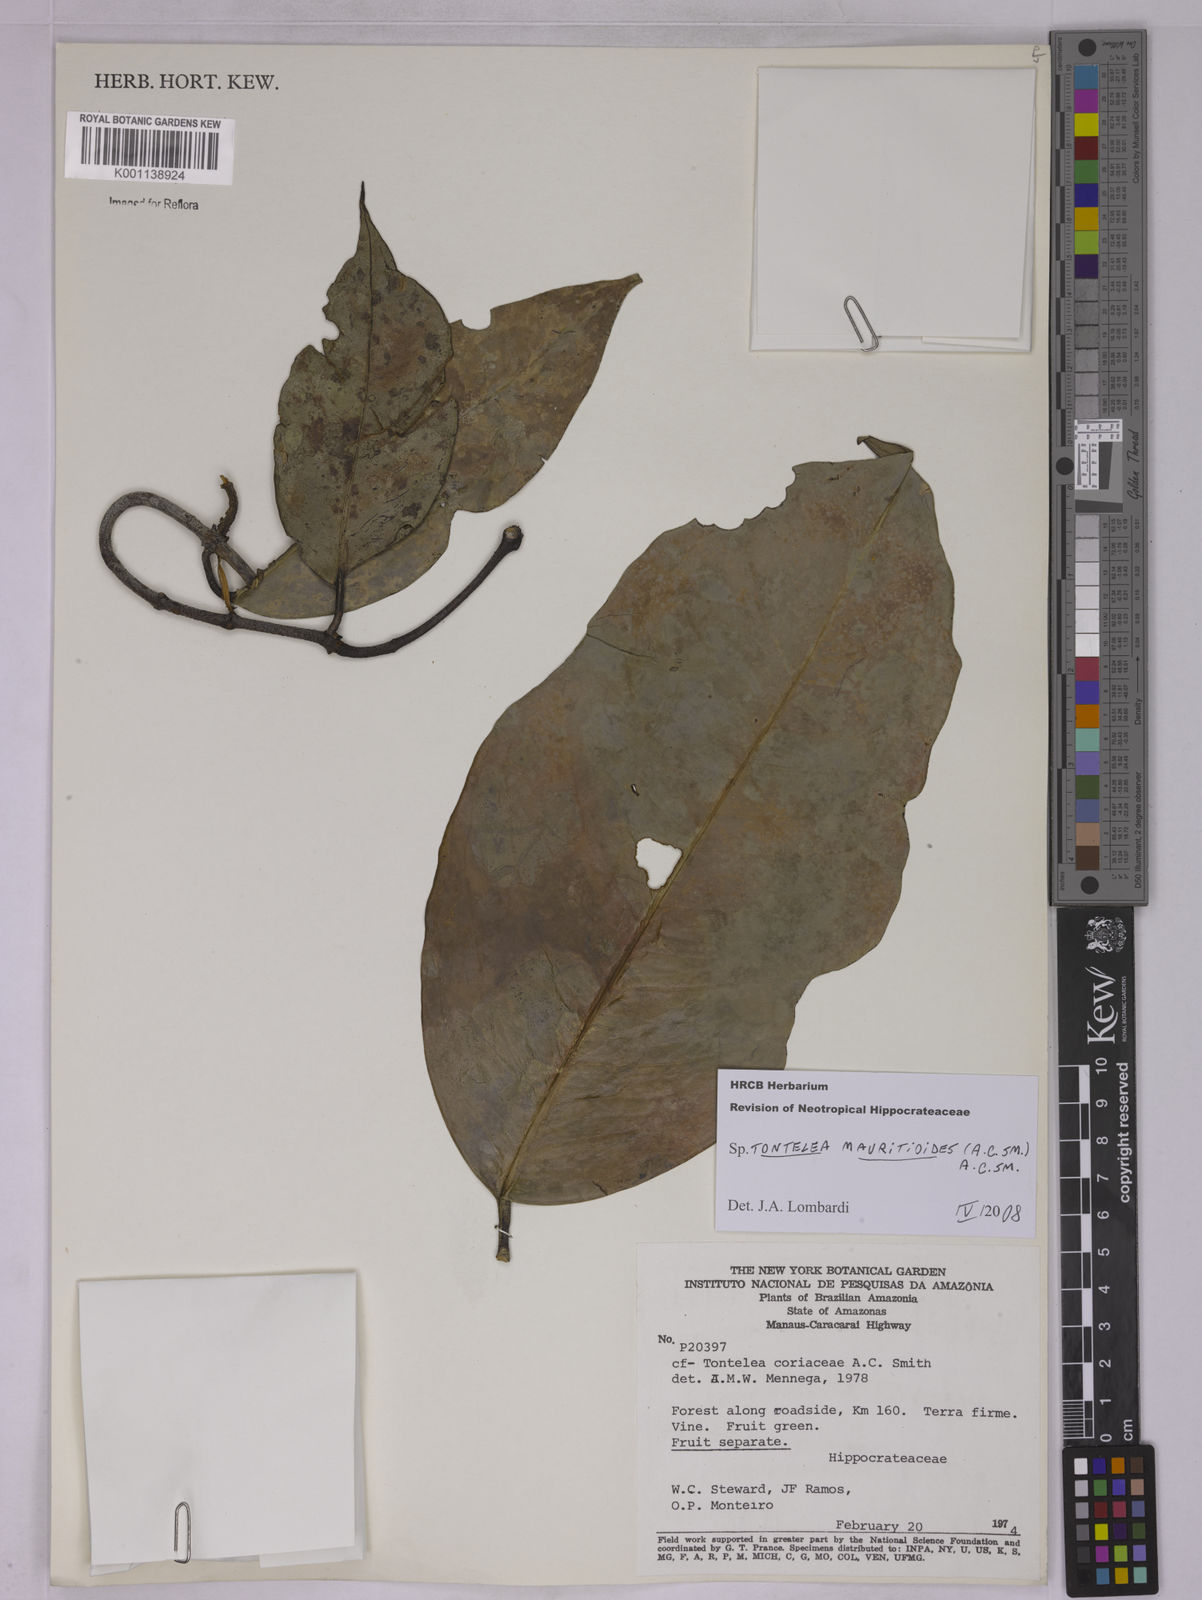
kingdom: Plantae
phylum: Tracheophyta
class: Magnoliopsida
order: Celastrales
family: Celastraceae
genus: Tontelea
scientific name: Tontelea mauritioides
